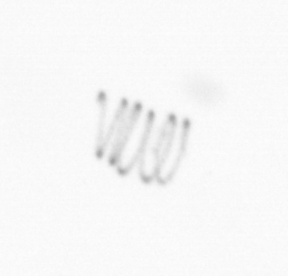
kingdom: Chromista
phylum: Ochrophyta
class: Bacillariophyceae
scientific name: Bacillariophyceae
